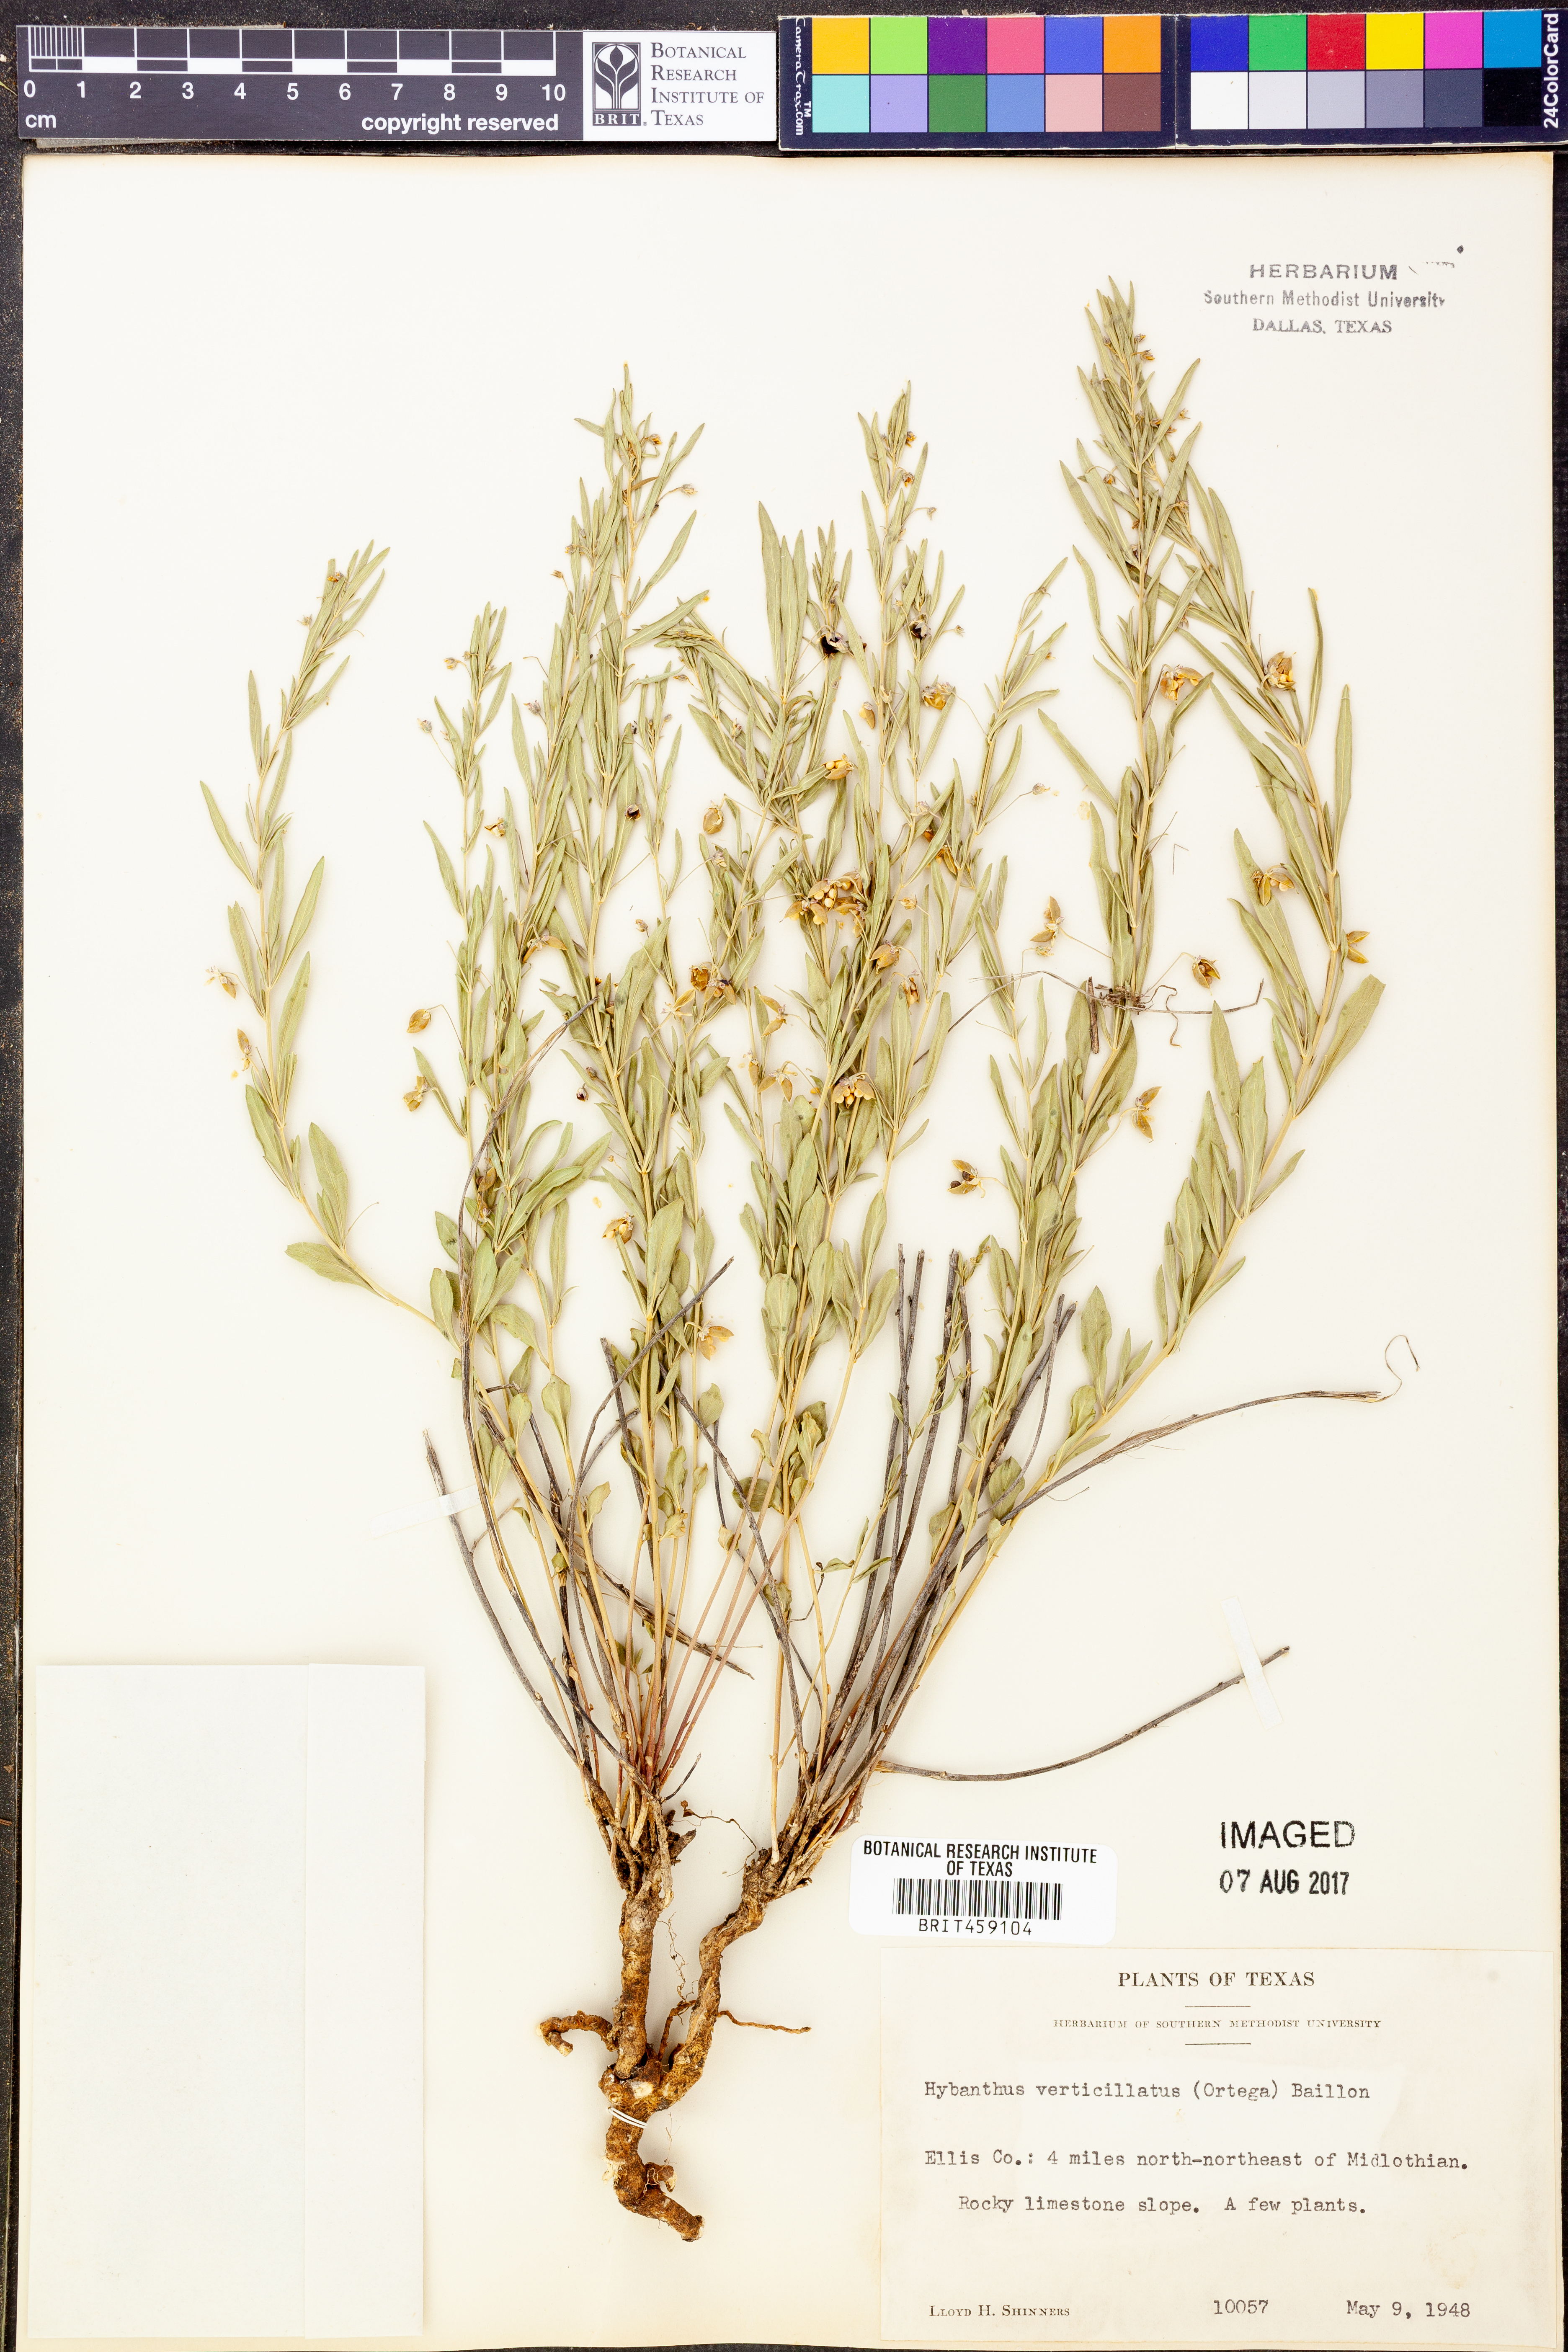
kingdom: Plantae
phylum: Tracheophyta
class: Magnoliopsida
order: Malpighiales
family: Violaceae
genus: Pombalia
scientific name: Pombalia verticillata
